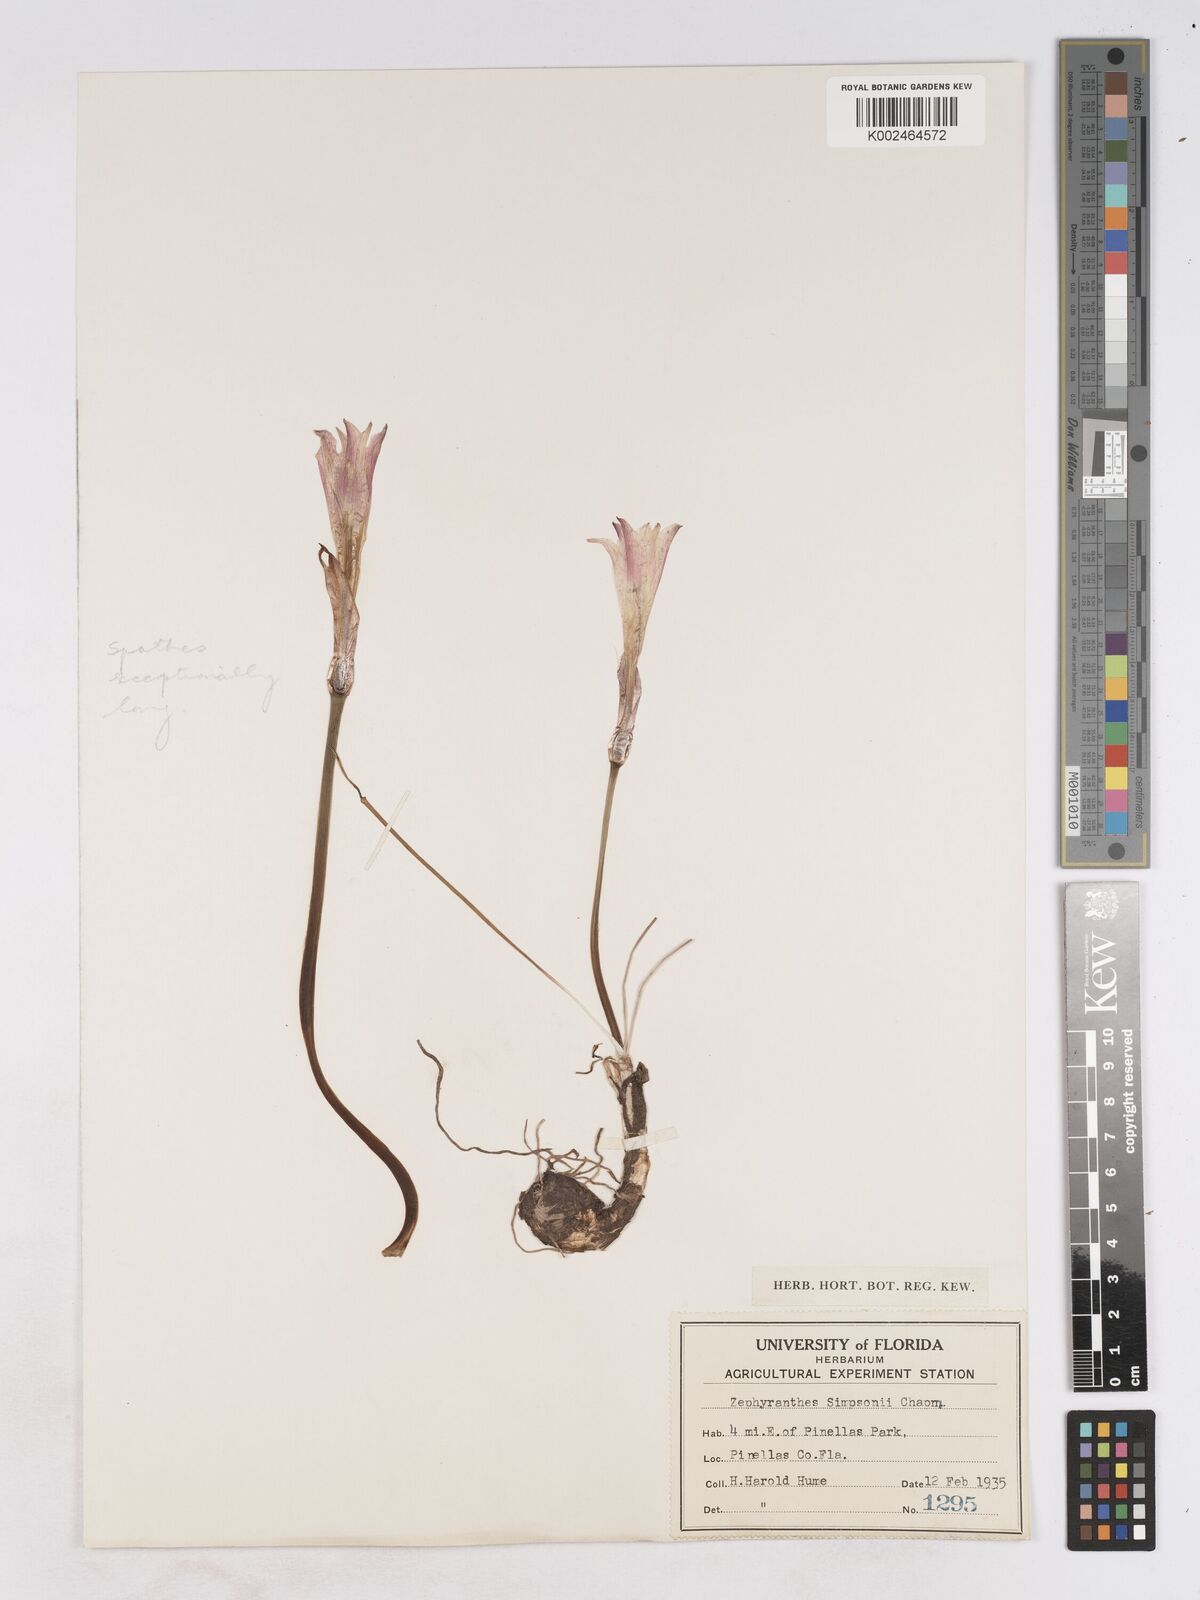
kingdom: Plantae
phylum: Tracheophyta
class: Liliopsida
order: Asparagales
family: Amaryllidaceae
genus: Zephyranthes
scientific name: Zephyranthes simpsonii
